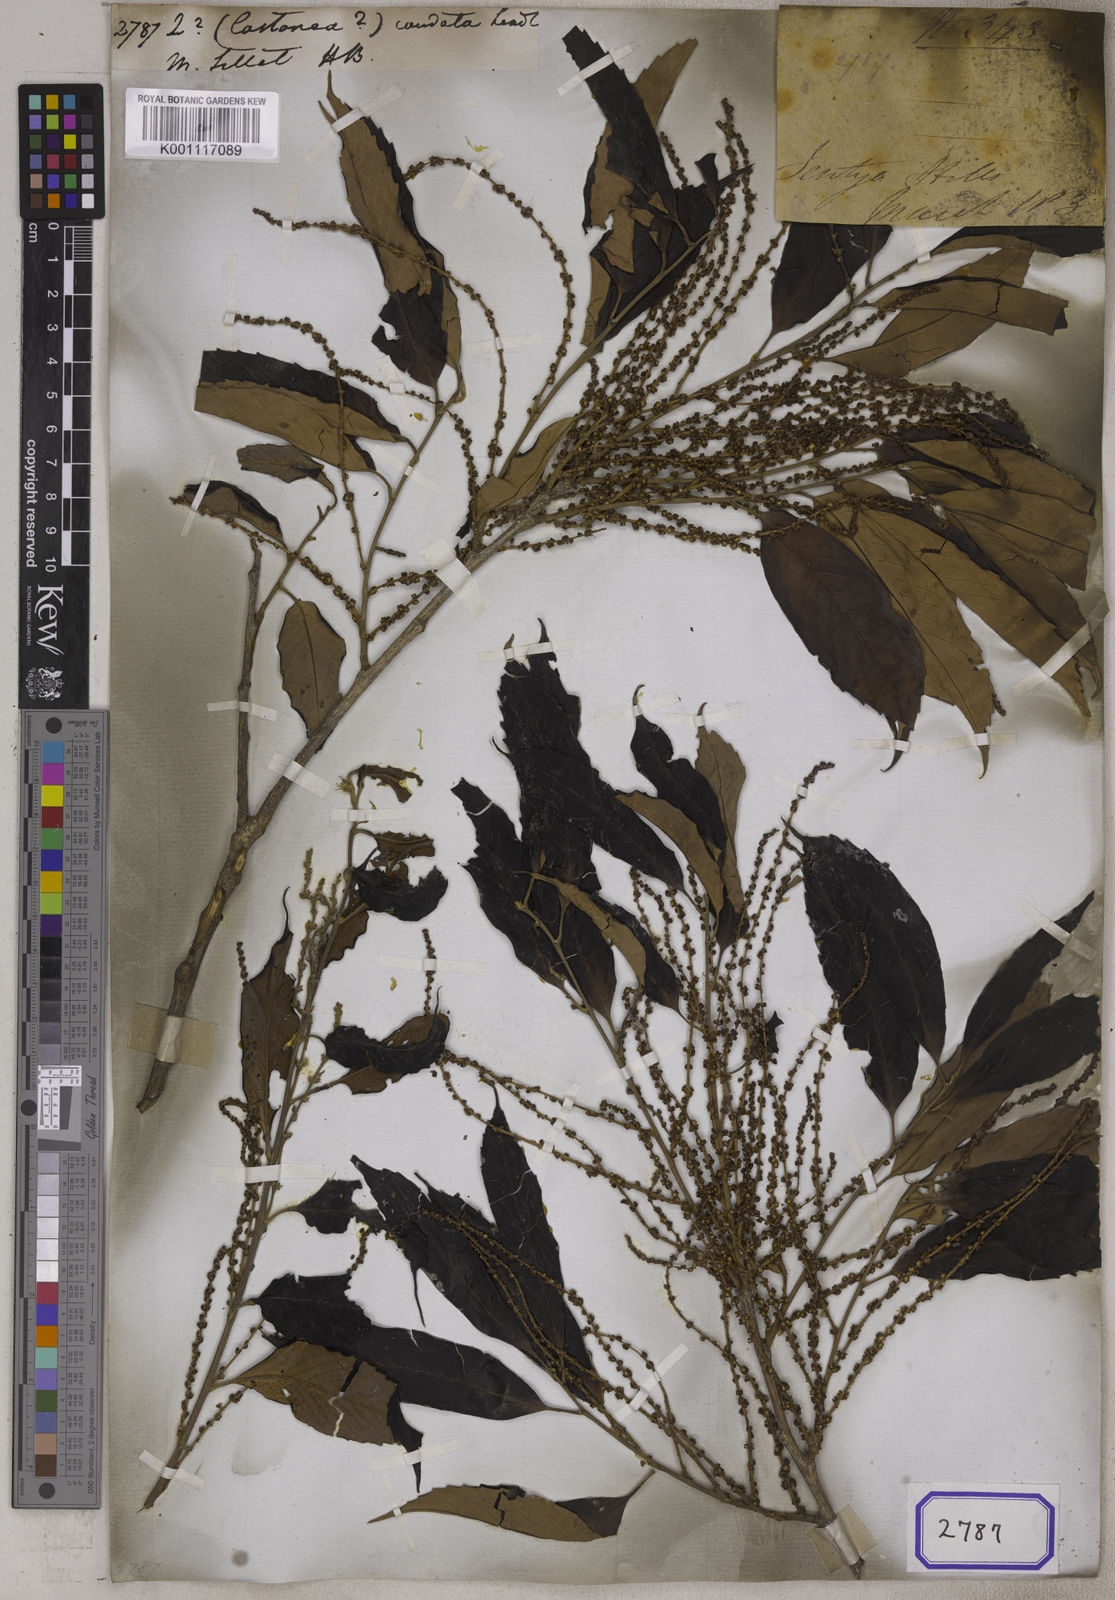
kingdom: Plantae
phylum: Tracheophyta
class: Magnoliopsida
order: Fagales
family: Fagaceae
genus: Quercus
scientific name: Quercus
